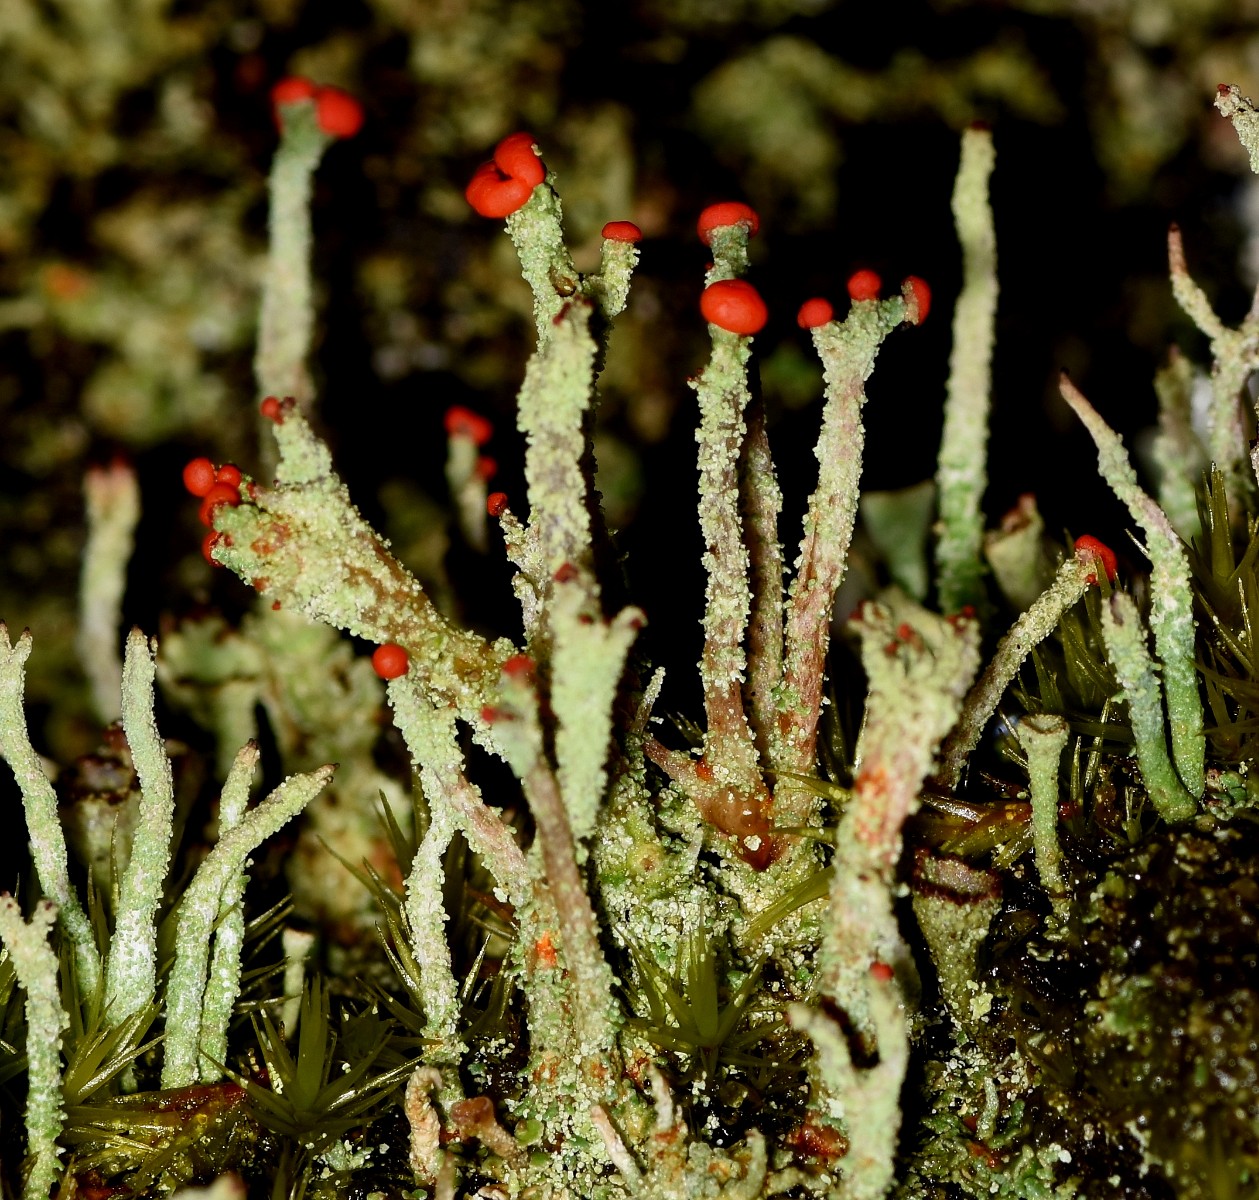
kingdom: Fungi
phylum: Ascomycota
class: Lecanoromycetes
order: Lecanorales
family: Cladoniaceae
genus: Cladonia
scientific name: Cladonia floerkeana
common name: lakrød bægerlav
